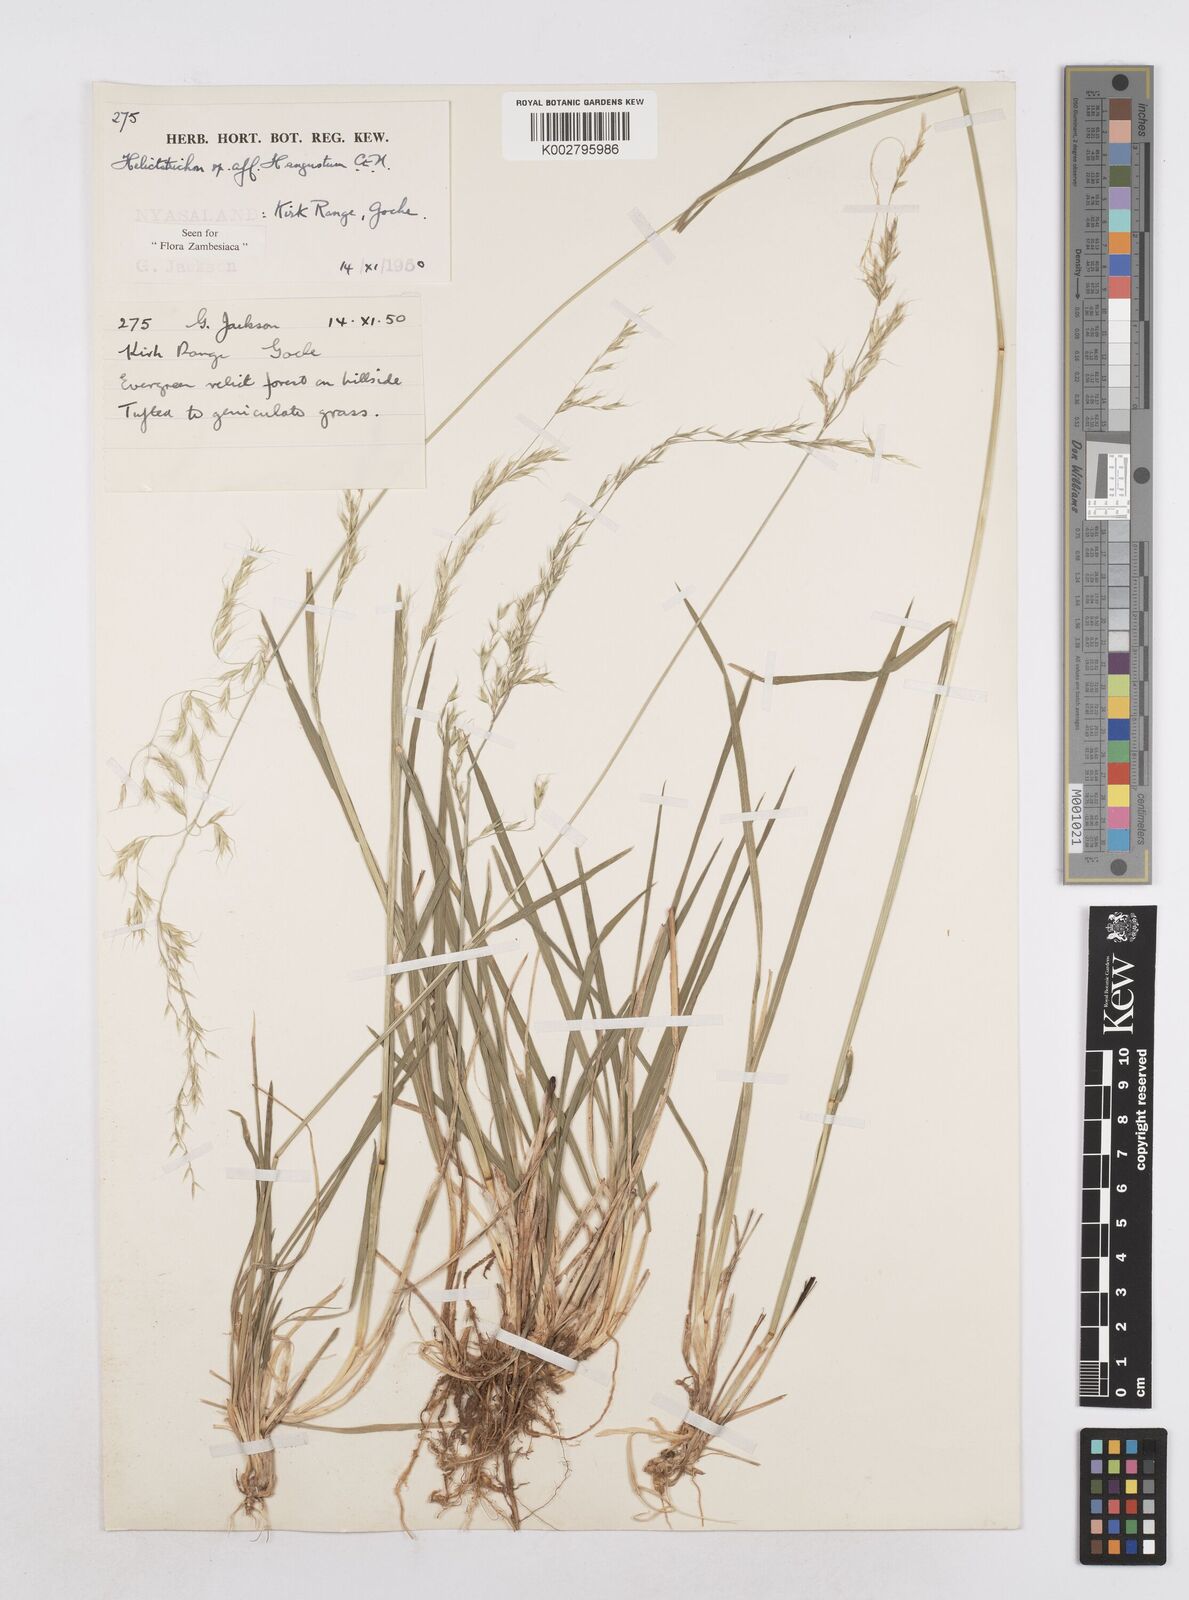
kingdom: Plantae
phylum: Tracheophyta
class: Liliopsida
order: Poales
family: Poaceae
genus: Trisetopsis
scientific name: Trisetopsis elongata
